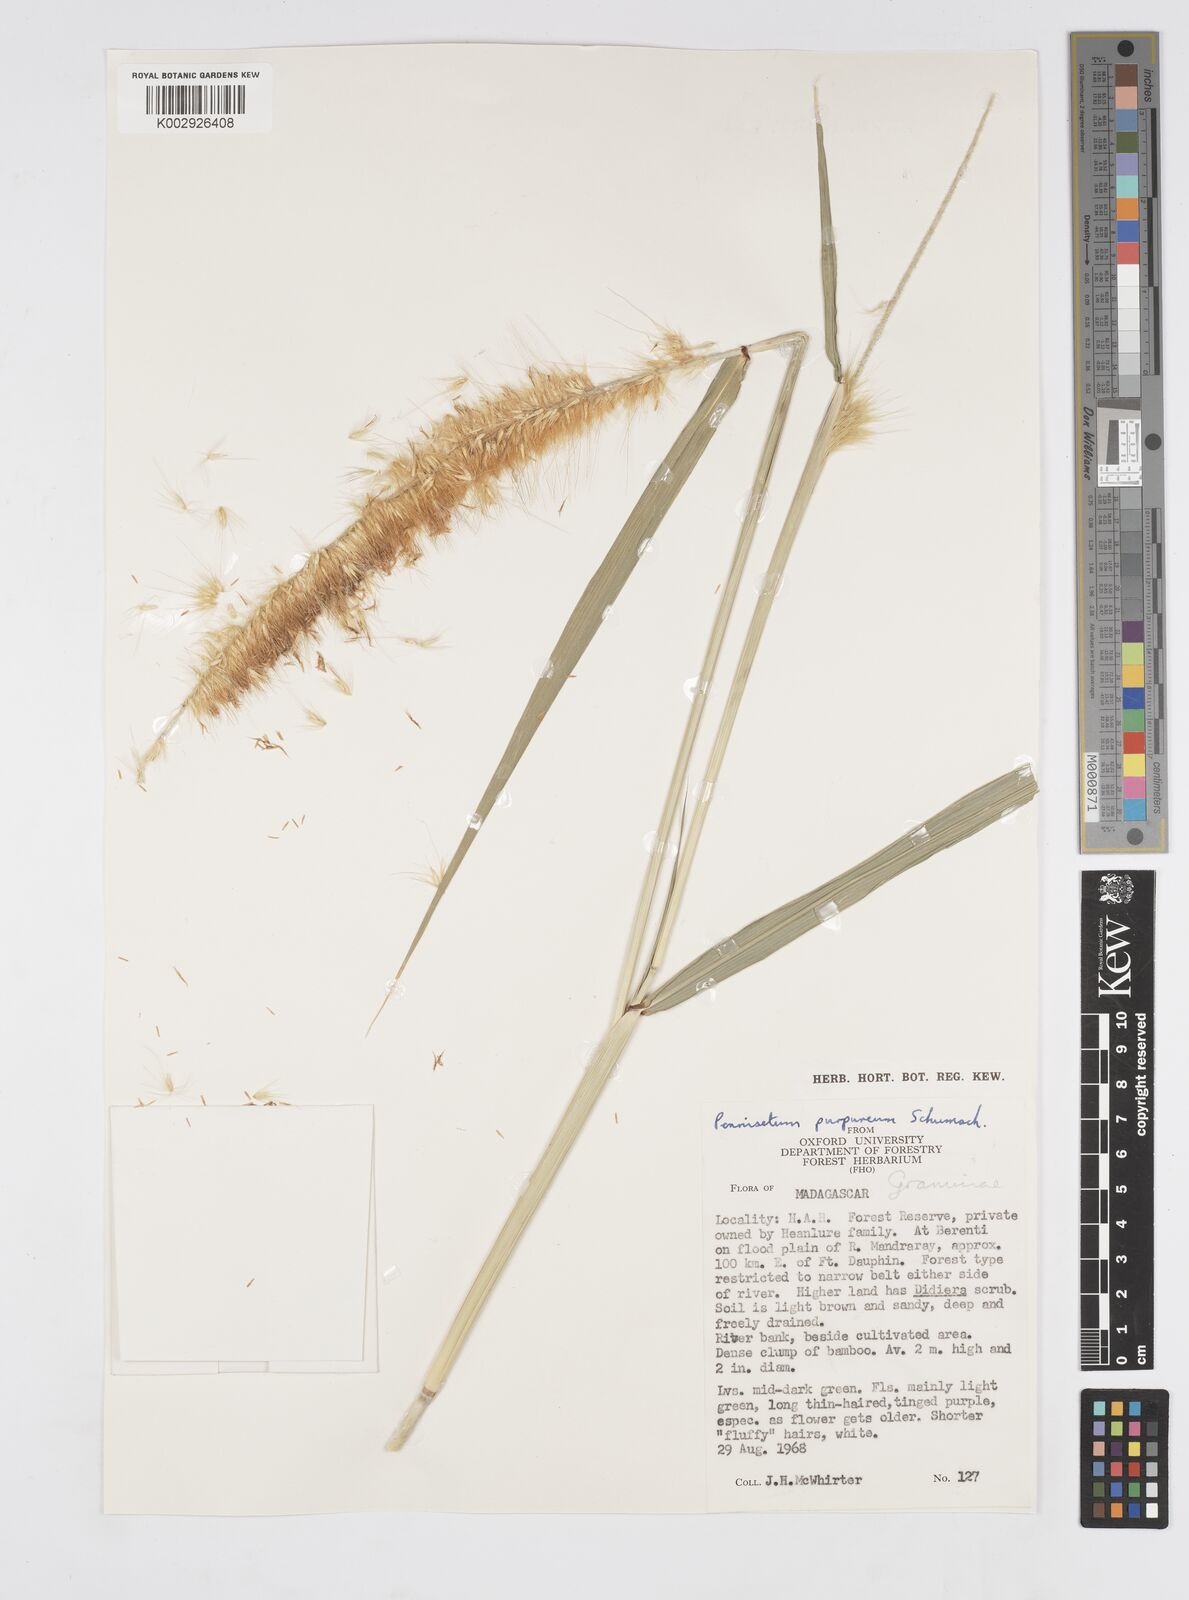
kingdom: Plantae
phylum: Tracheophyta
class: Liliopsida
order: Poales
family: Poaceae
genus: Cenchrus
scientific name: Cenchrus purpureus
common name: Elephant grass
